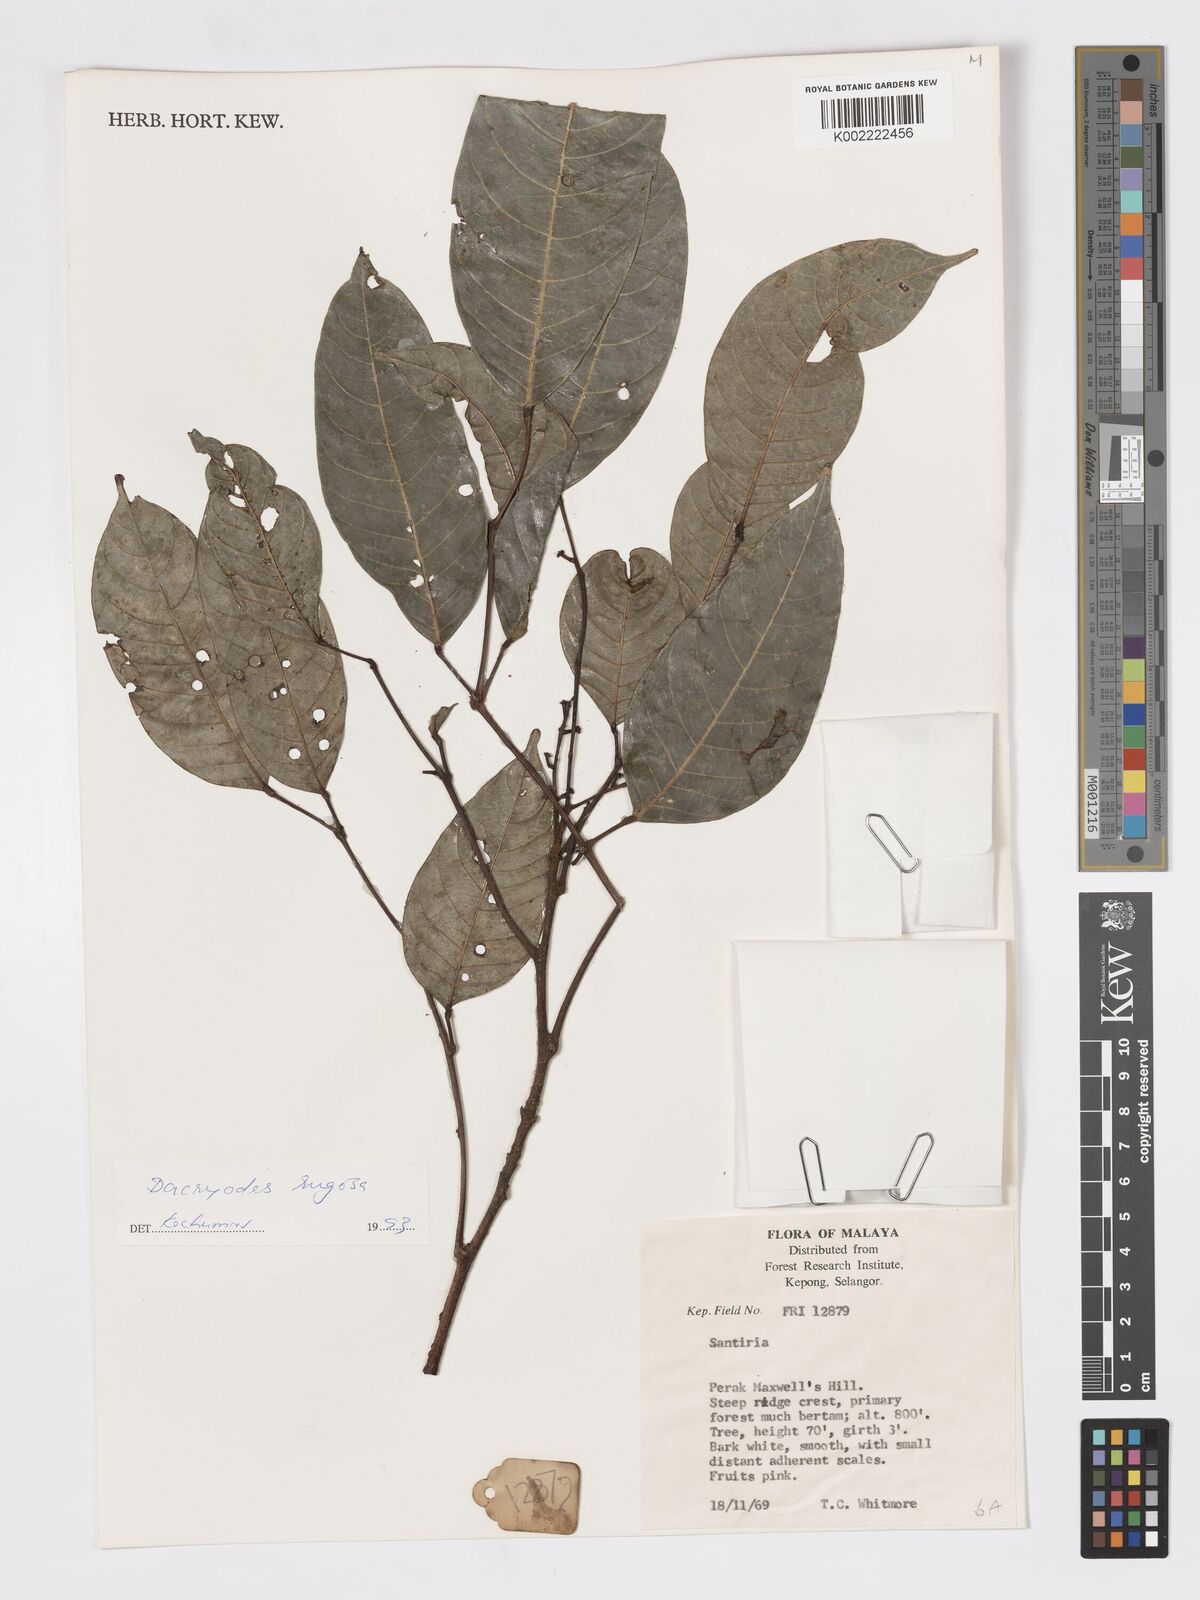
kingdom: Plantae
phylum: Tracheophyta
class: Magnoliopsida
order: Sapindales
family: Burseraceae
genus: Dacryodes
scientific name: Dacryodes rugosa
